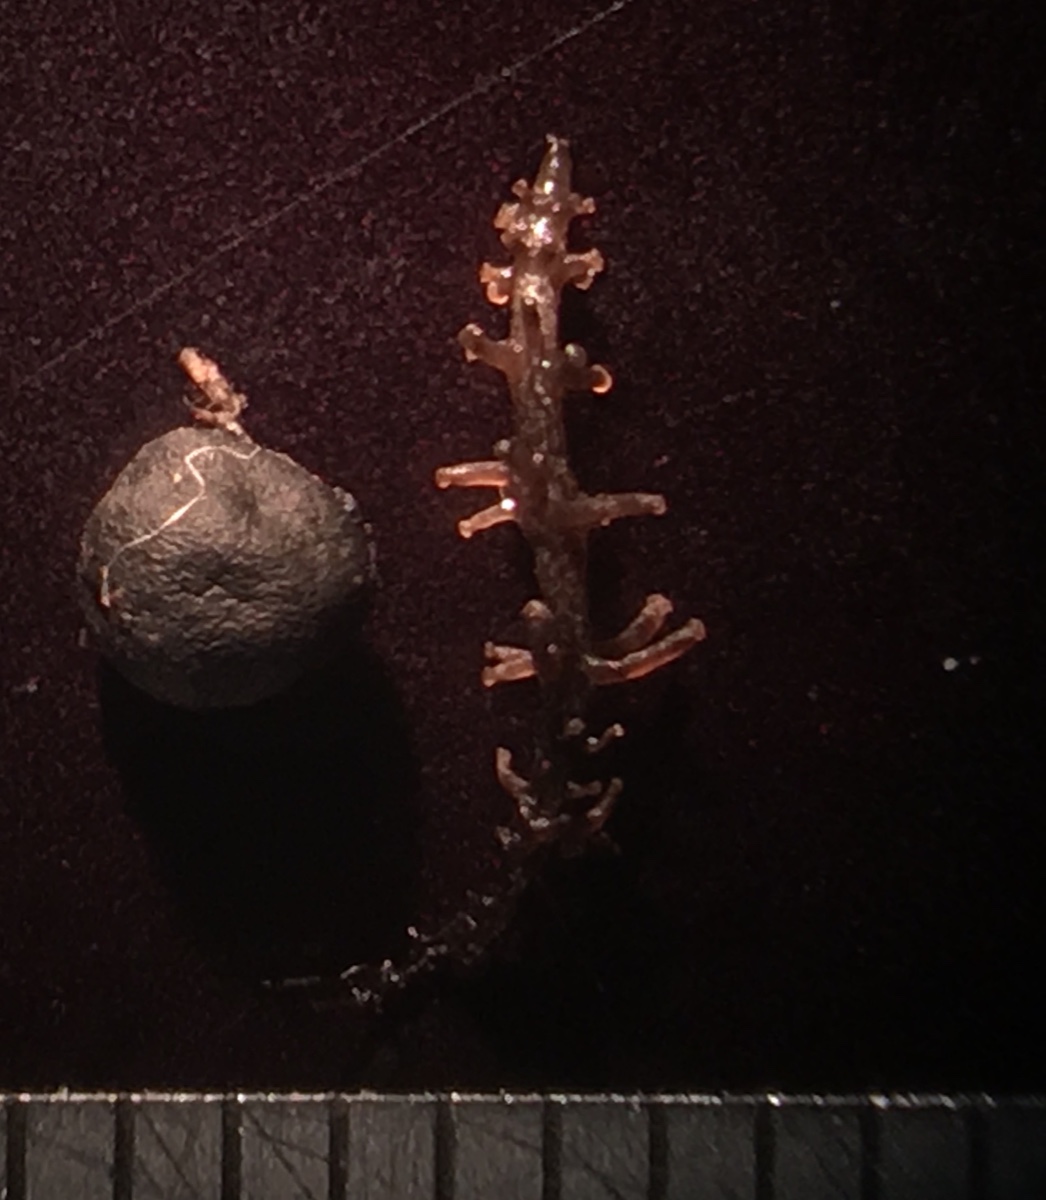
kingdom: Fungi
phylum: Basidiomycota
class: Agaricomycetes
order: Agaricales
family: Tricholomataceae
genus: Dendrocollybia
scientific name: Dendrocollybia racemosa
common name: grenet lighat
